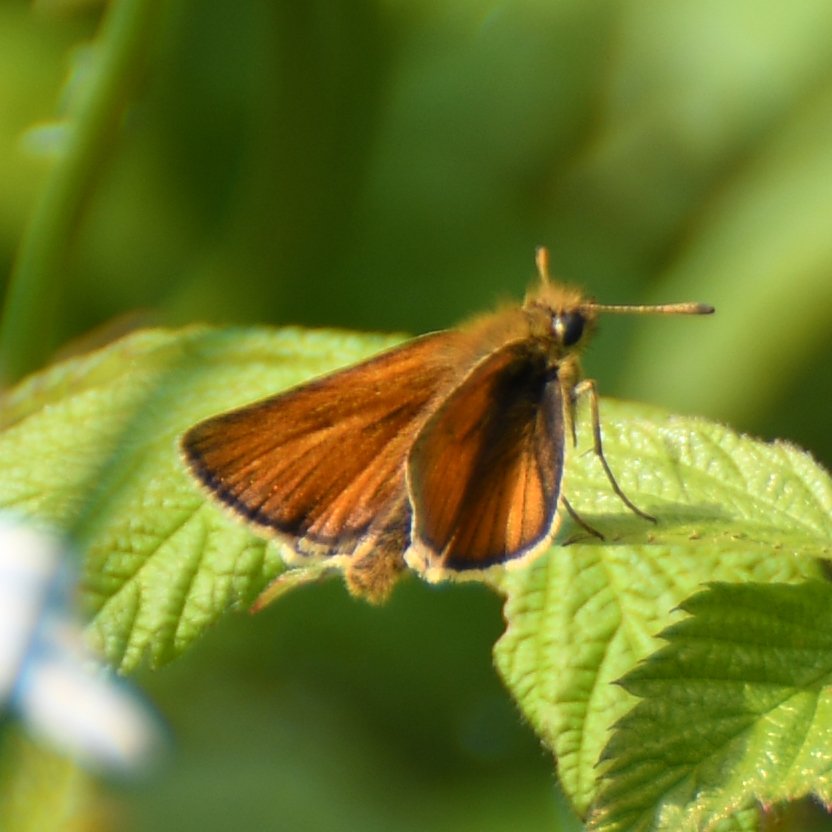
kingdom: Animalia
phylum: Arthropoda
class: Insecta
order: Lepidoptera
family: Hesperiidae
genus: Thymelicus
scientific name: Thymelicus lineola
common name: European Skipper
